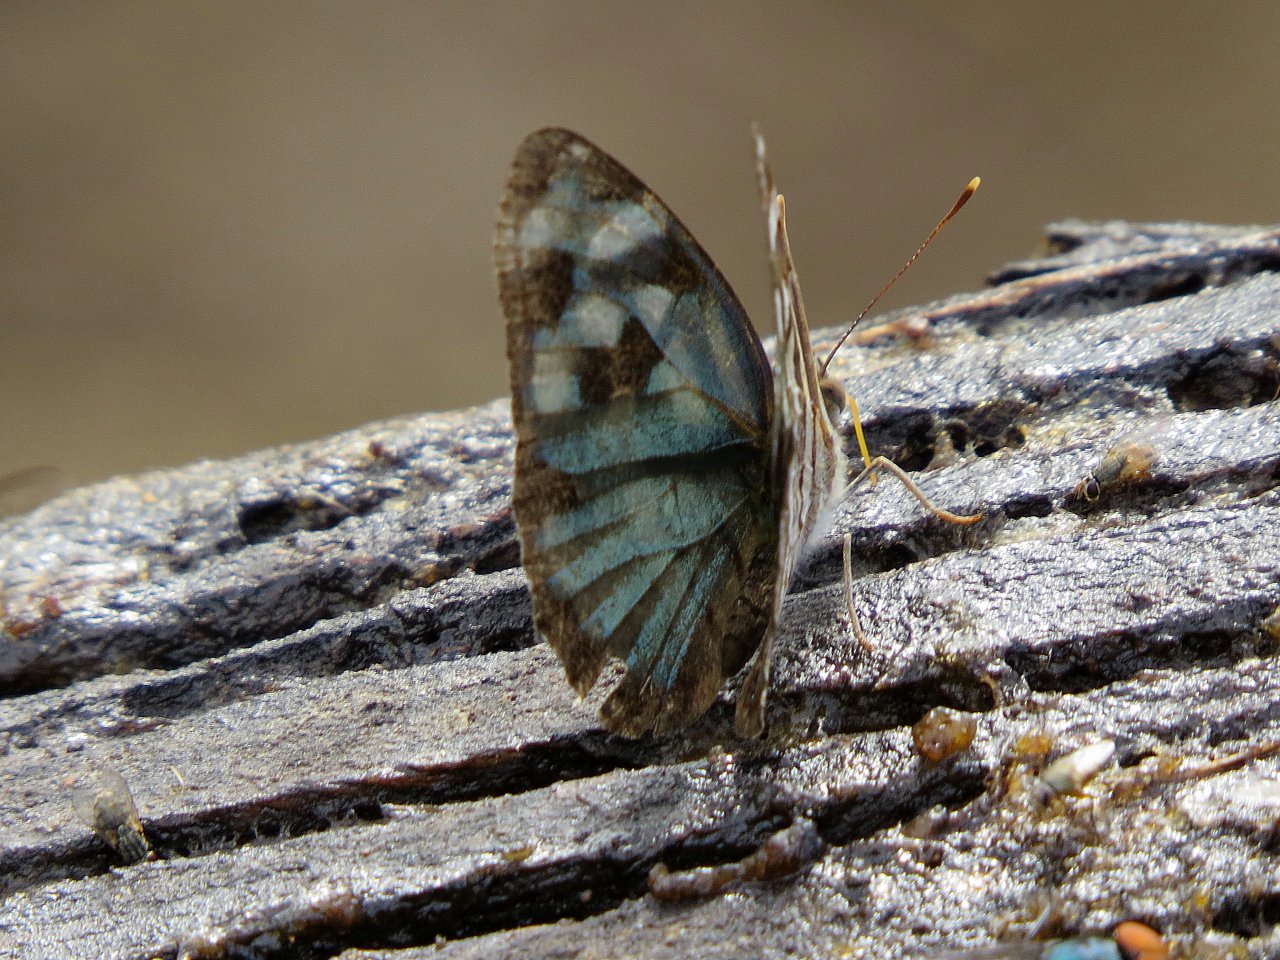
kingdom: Animalia
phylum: Arthropoda
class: Insecta
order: Lepidoptera
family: Nymphalidae
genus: Dynamine
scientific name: Dynamine mylitta
